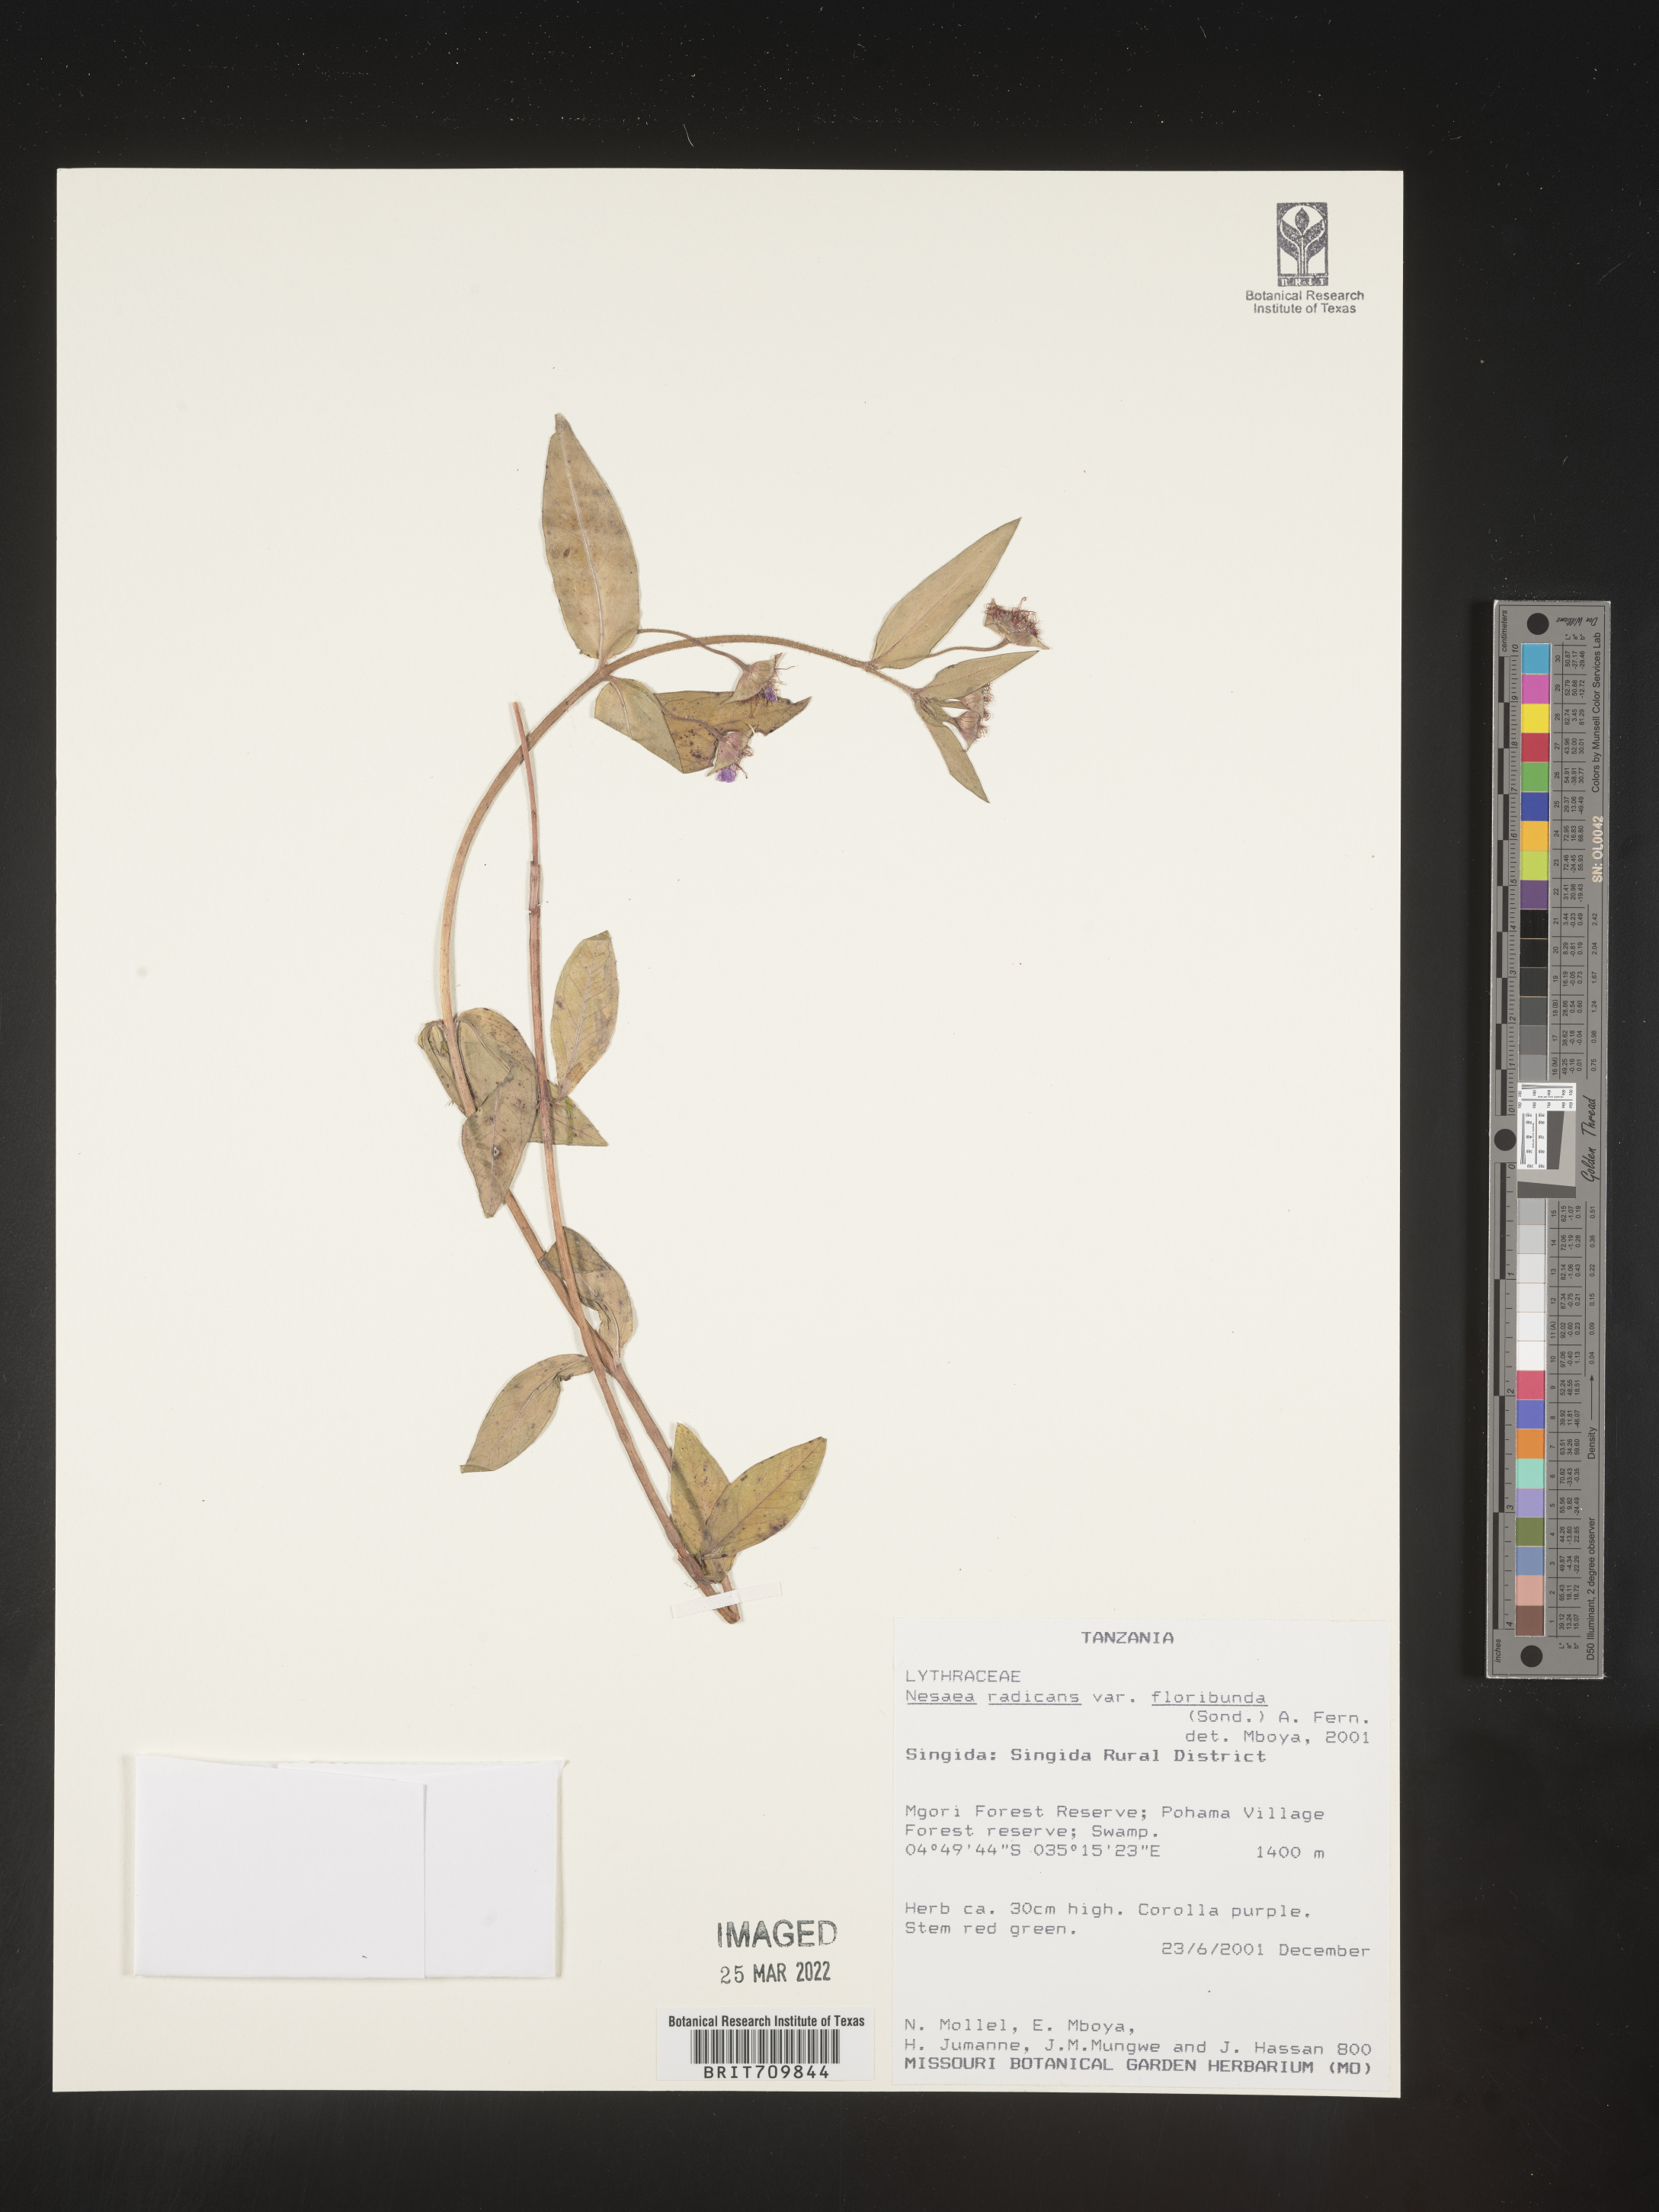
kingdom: Plantae
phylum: Tracheophyta
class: Magnoliopsida
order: Myrtales
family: Lythraceae
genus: Nesaea
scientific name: Nesaea
